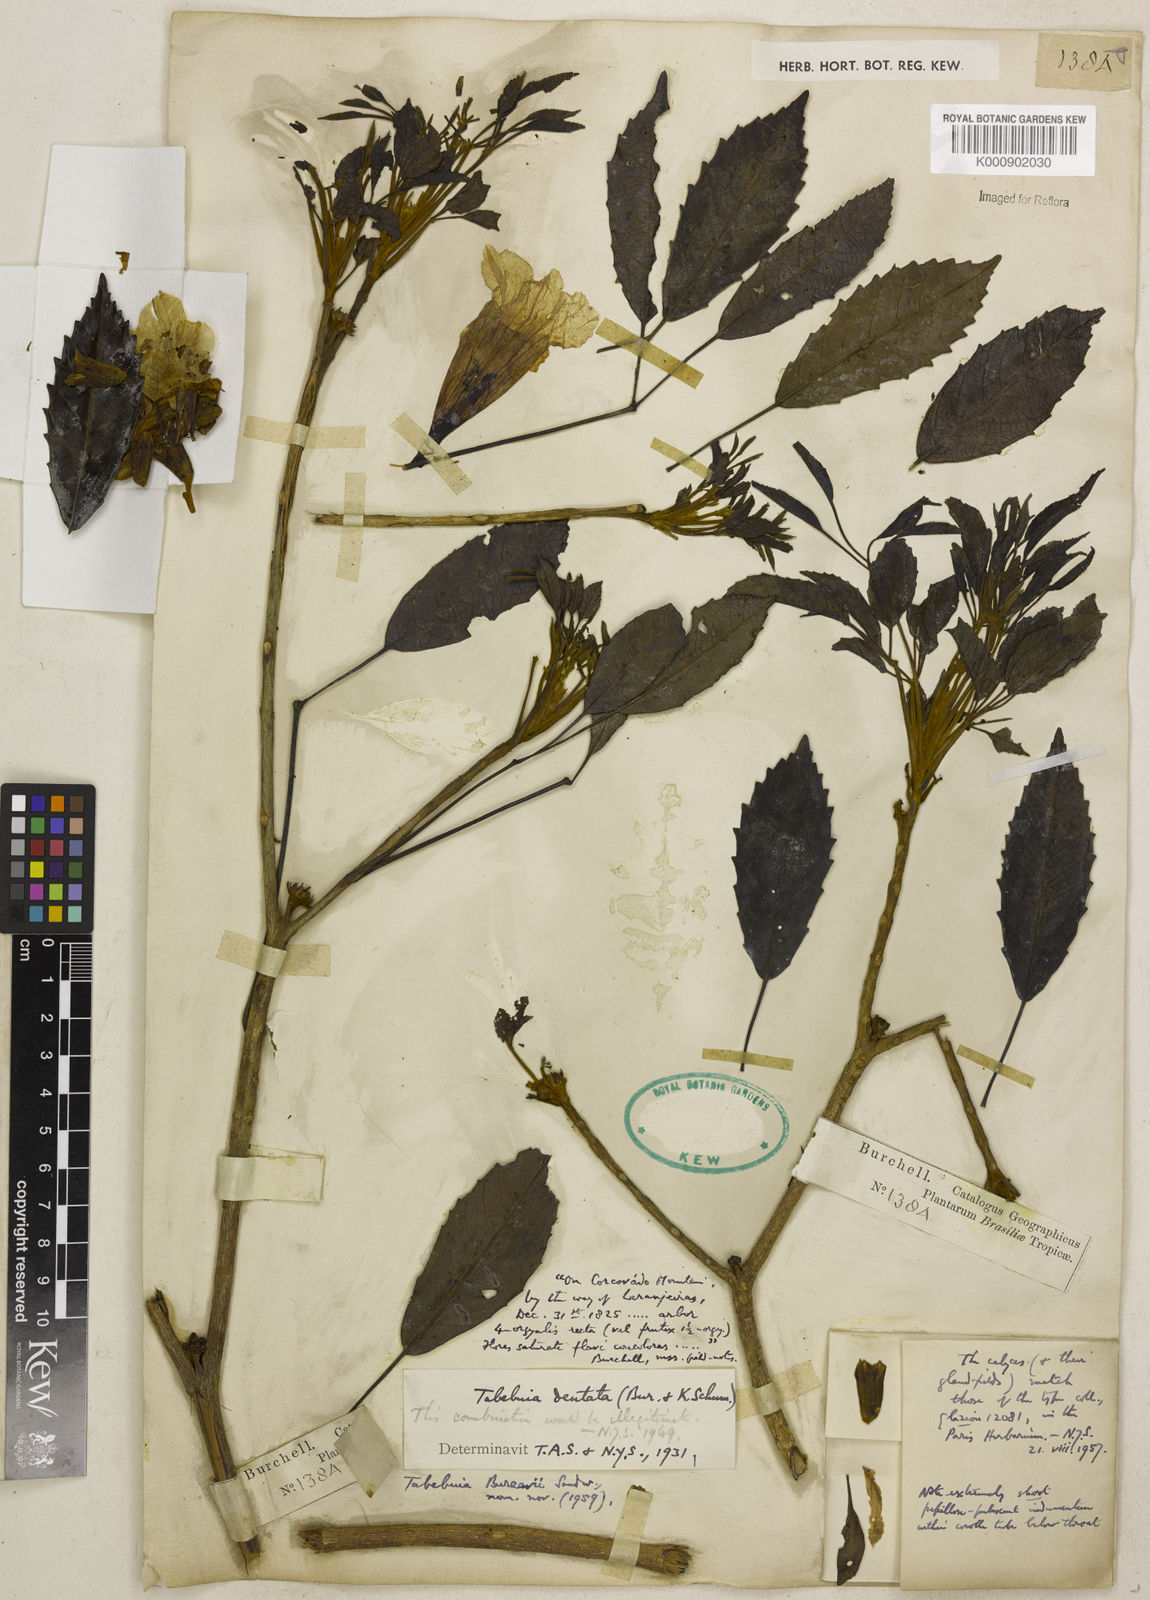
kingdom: Plantae
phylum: Tracheophyta
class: Magnoliopsida
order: Lamiales
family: Bignoniaceae
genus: Handroanthus
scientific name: Handroanthus bureavii
